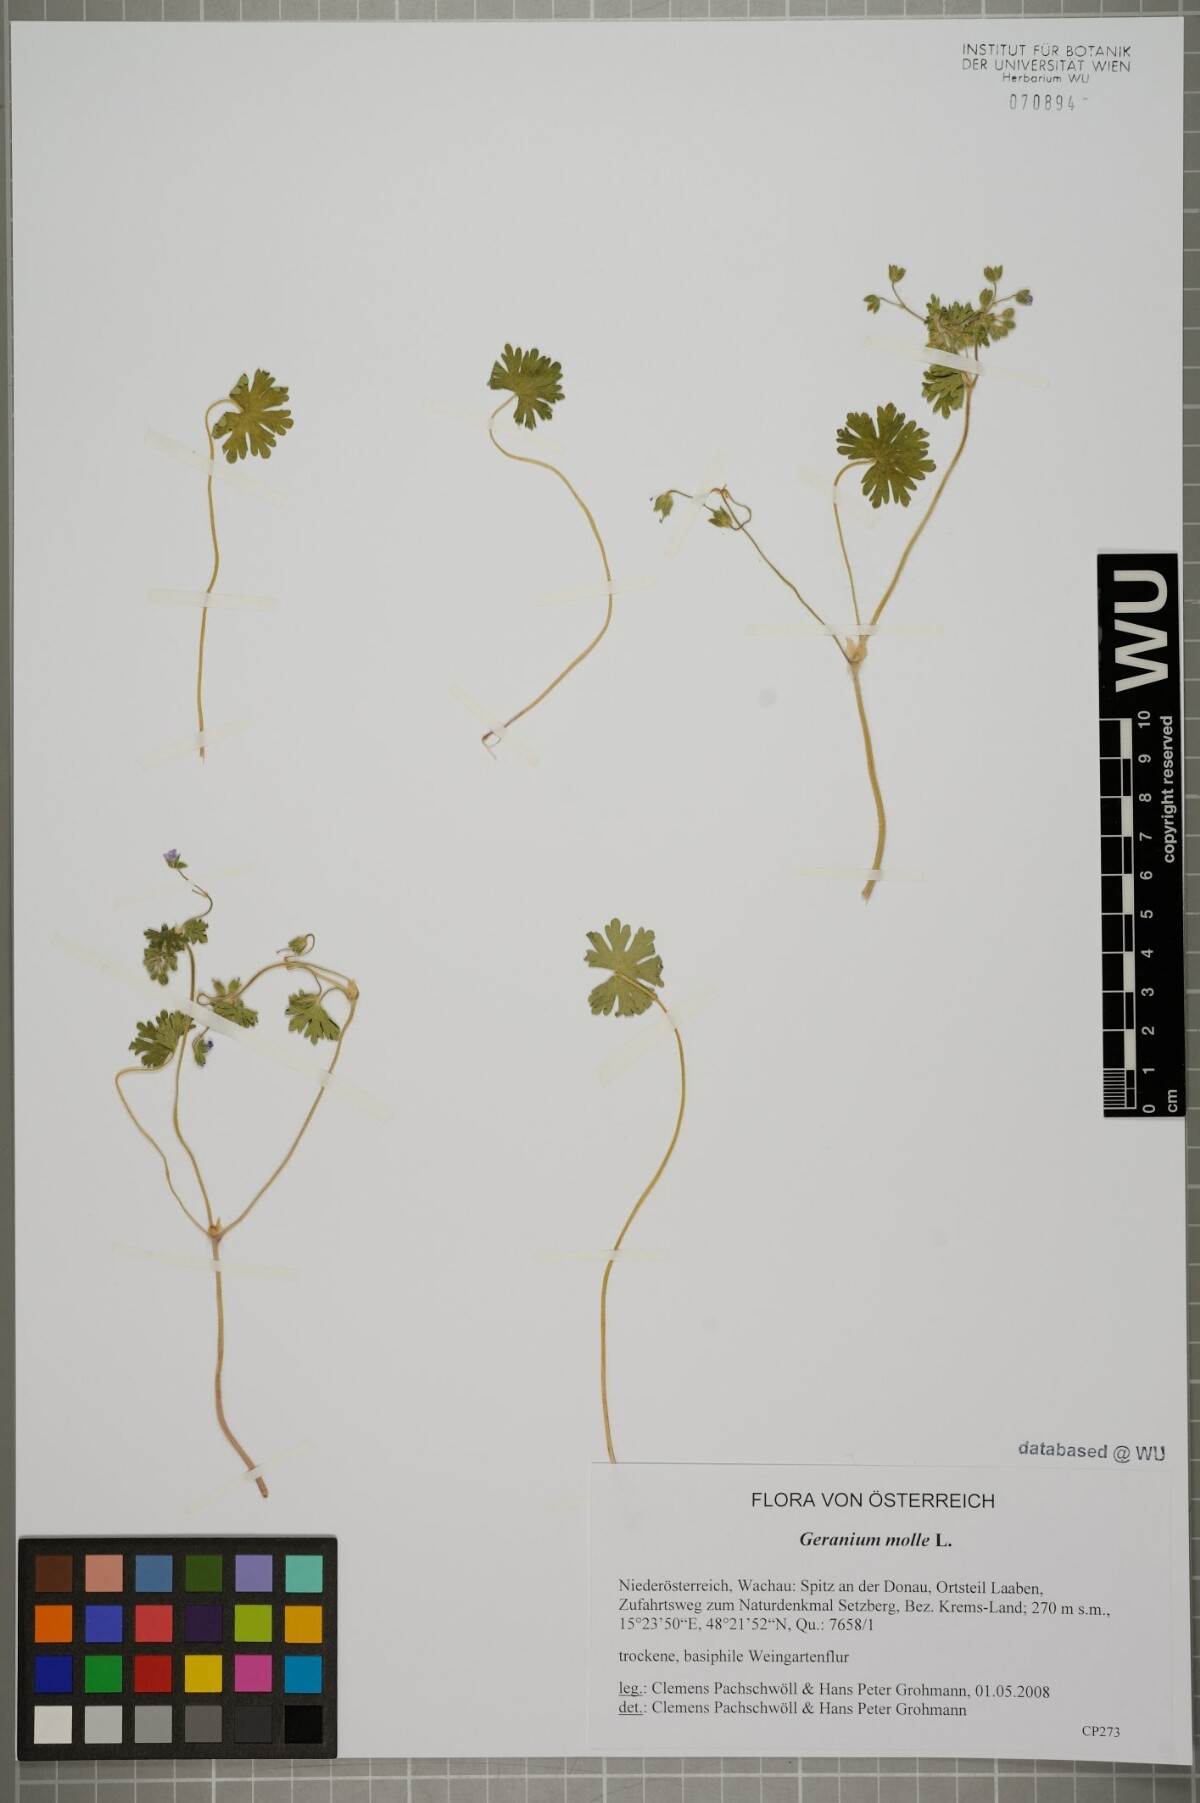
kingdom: Plantae
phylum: Tracheophyta
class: Magnoliopsida
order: Geraniales
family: Geraniaceae
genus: Geranium
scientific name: Geranium molle
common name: Dove's-foot crane's-bill
